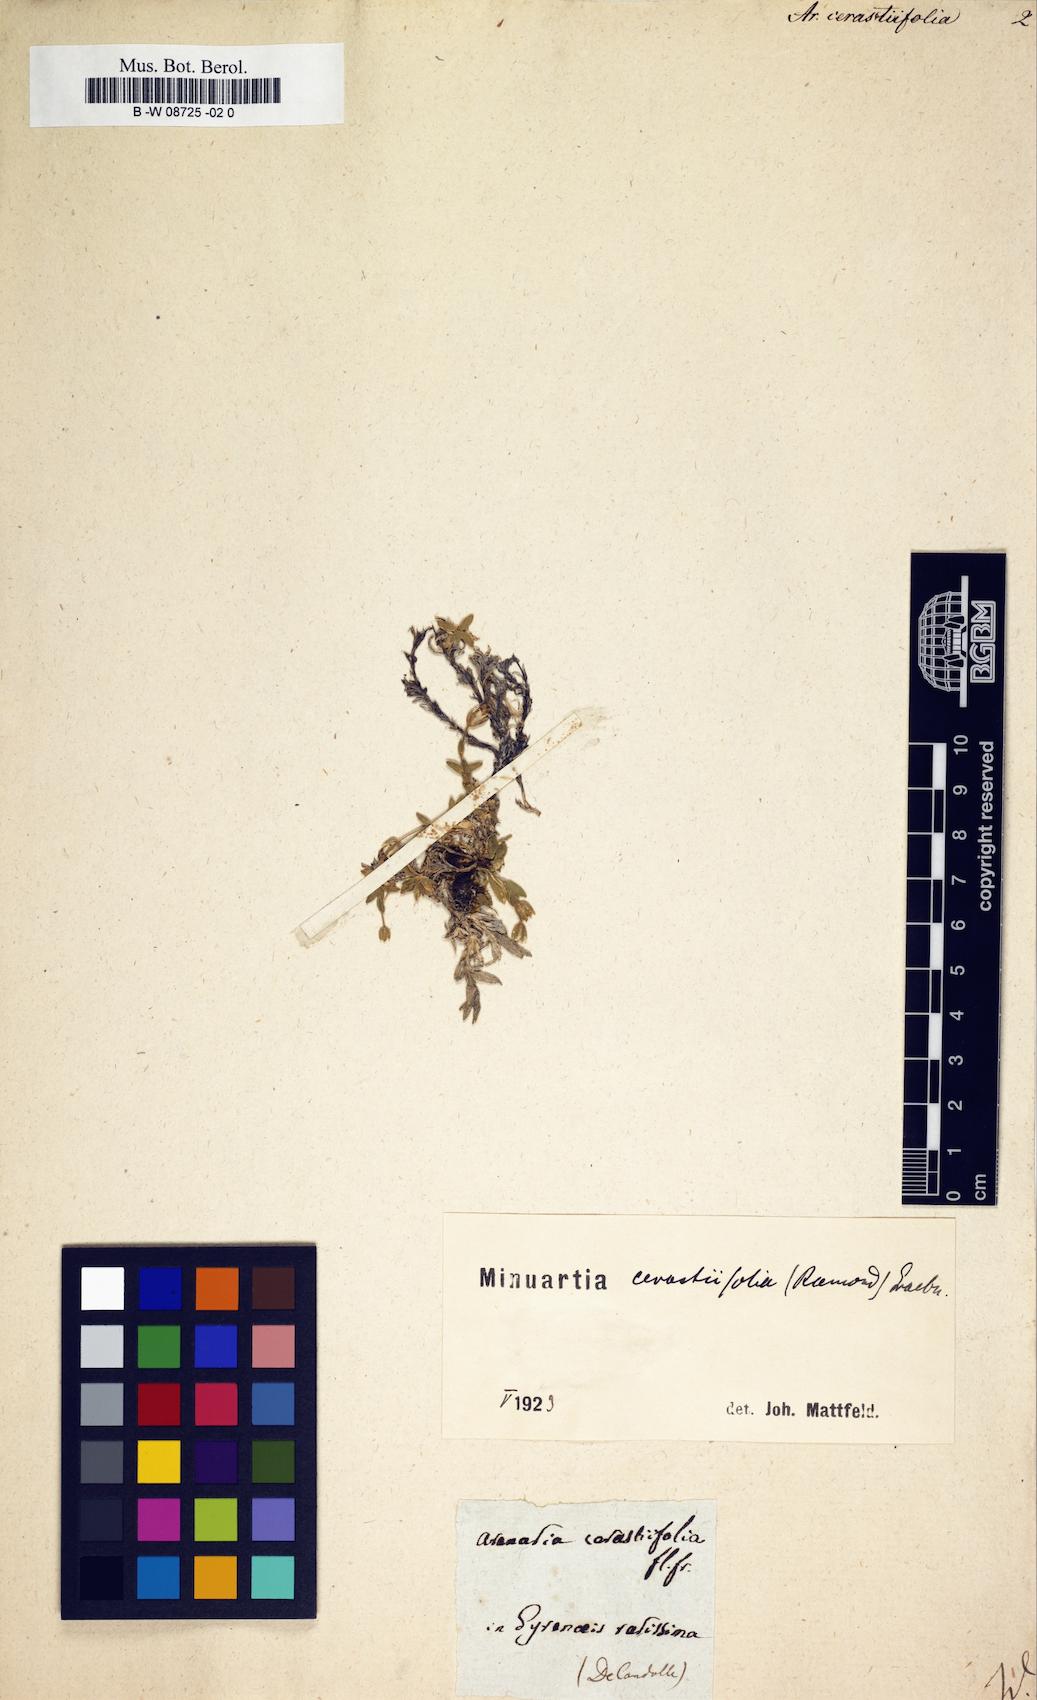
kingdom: Plantae
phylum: Tracheophyta
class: Magnoliopsida
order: Caryophyllales
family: Caryophyllaceae
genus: Facchinia
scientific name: Facchinia cerastiifolia
